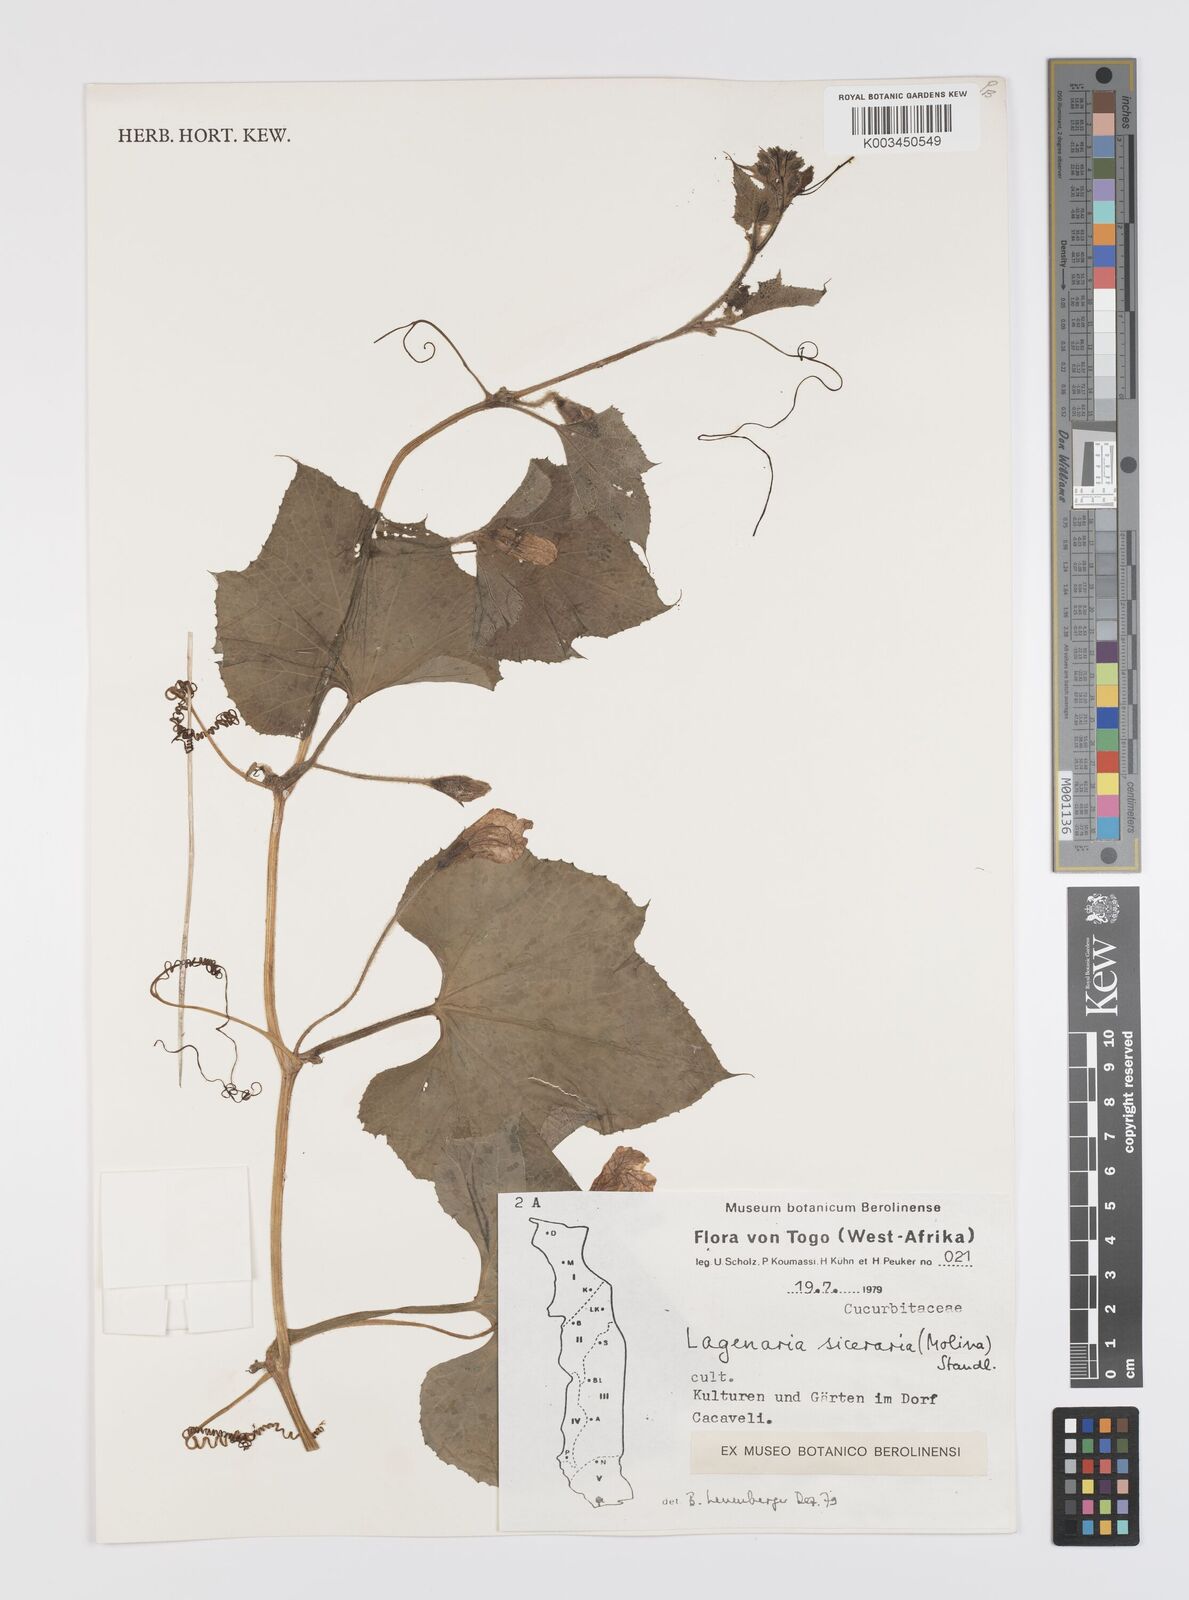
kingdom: Plantae
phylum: Tracheophyta
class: Magnoliopsida
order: Cucurbitales
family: Cucurbitaceae
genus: Lagenaria
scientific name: Lagenaria siceraria
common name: Bottle gourd
